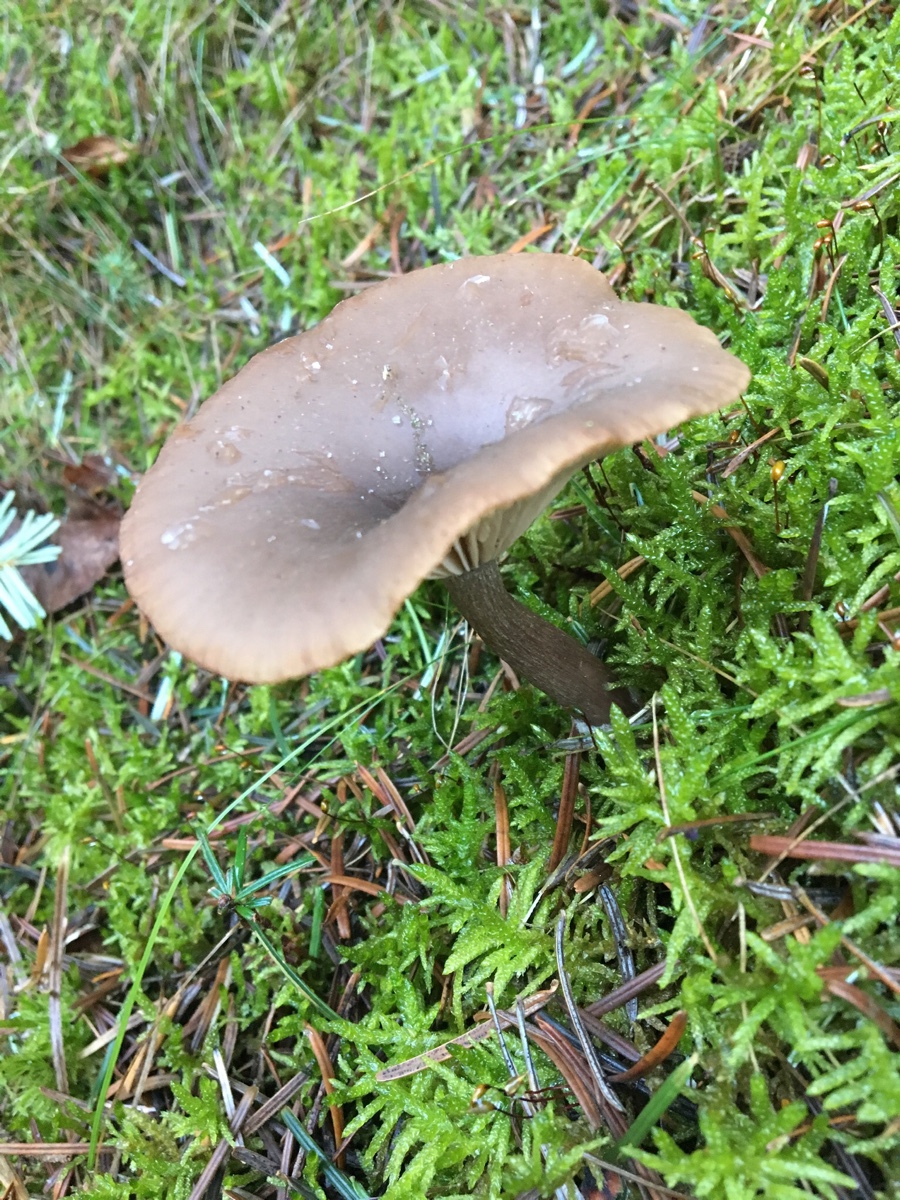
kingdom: Fungi
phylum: Basidiomycota
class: Agaricomycetes
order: Agaricales
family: Pseudoclitocybaceae
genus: Pseudoclitocybe
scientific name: Pseudoclitocybe cyathiformis
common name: almindelig bægertragthat
